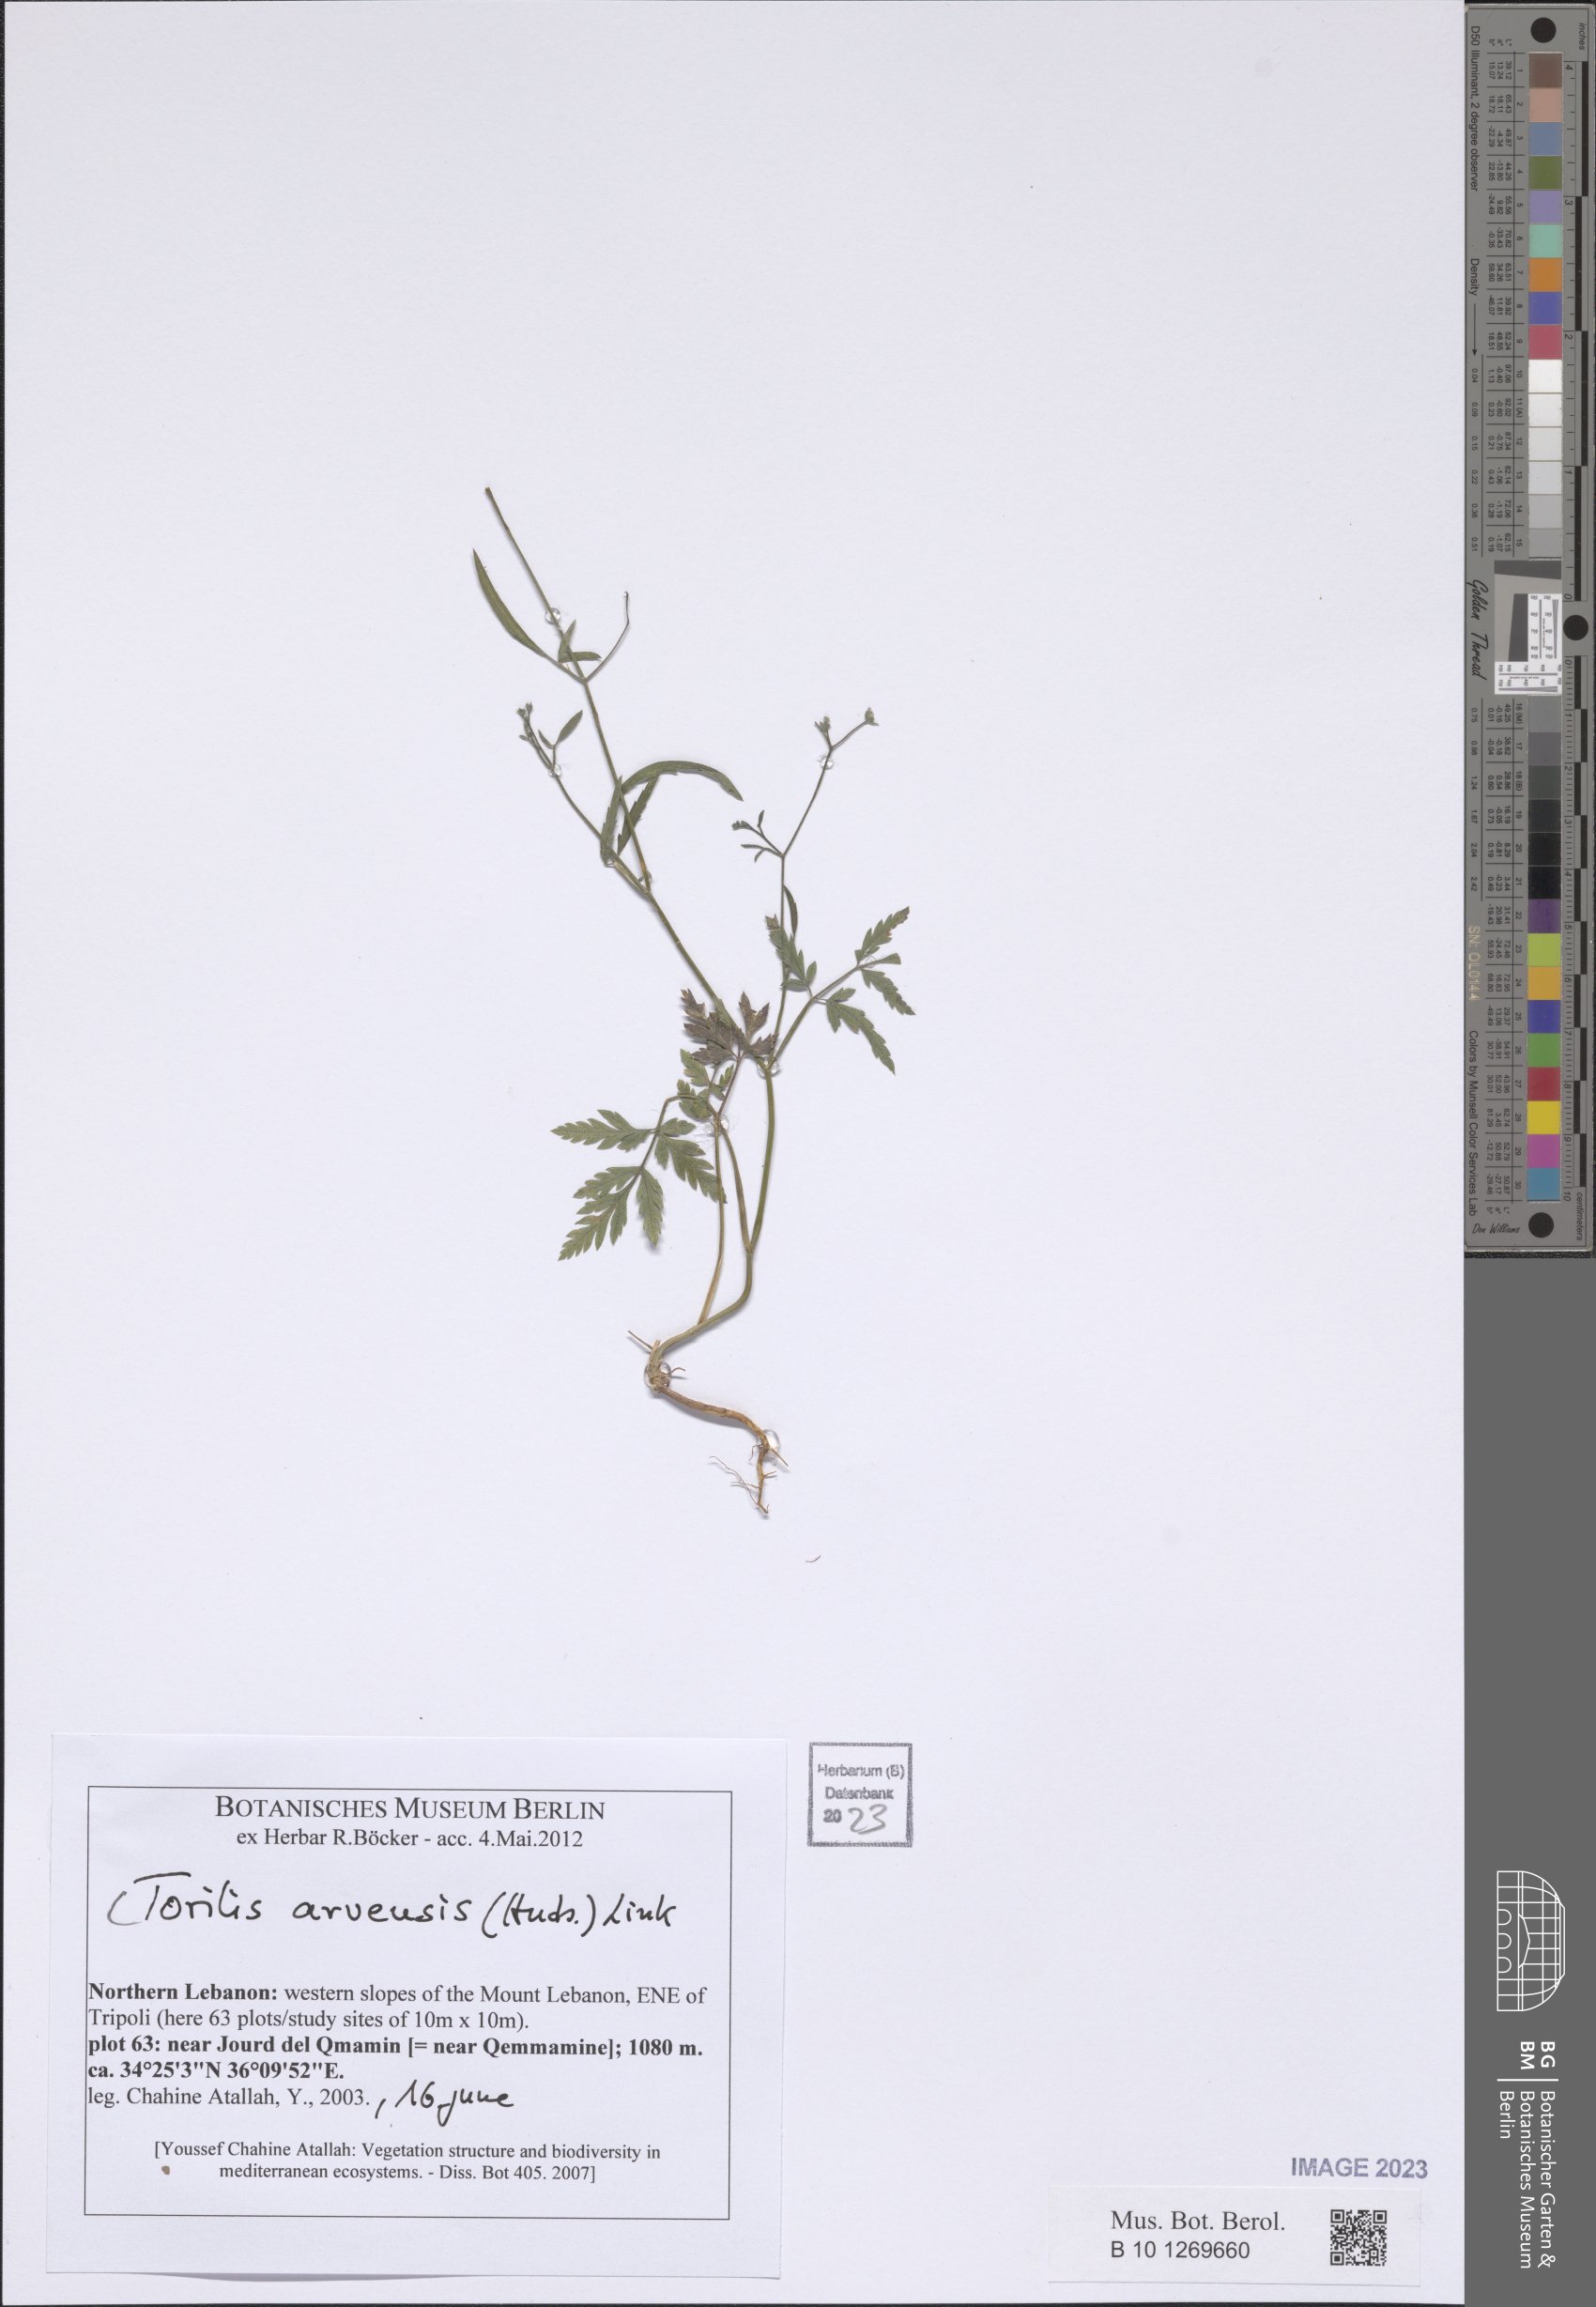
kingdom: Plantae
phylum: Tracheophyta
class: Magnoliopsida
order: Apiales
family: Apiaceae
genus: Torilis
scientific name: Torilis arvensis
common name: Spreading hedge-parsley
